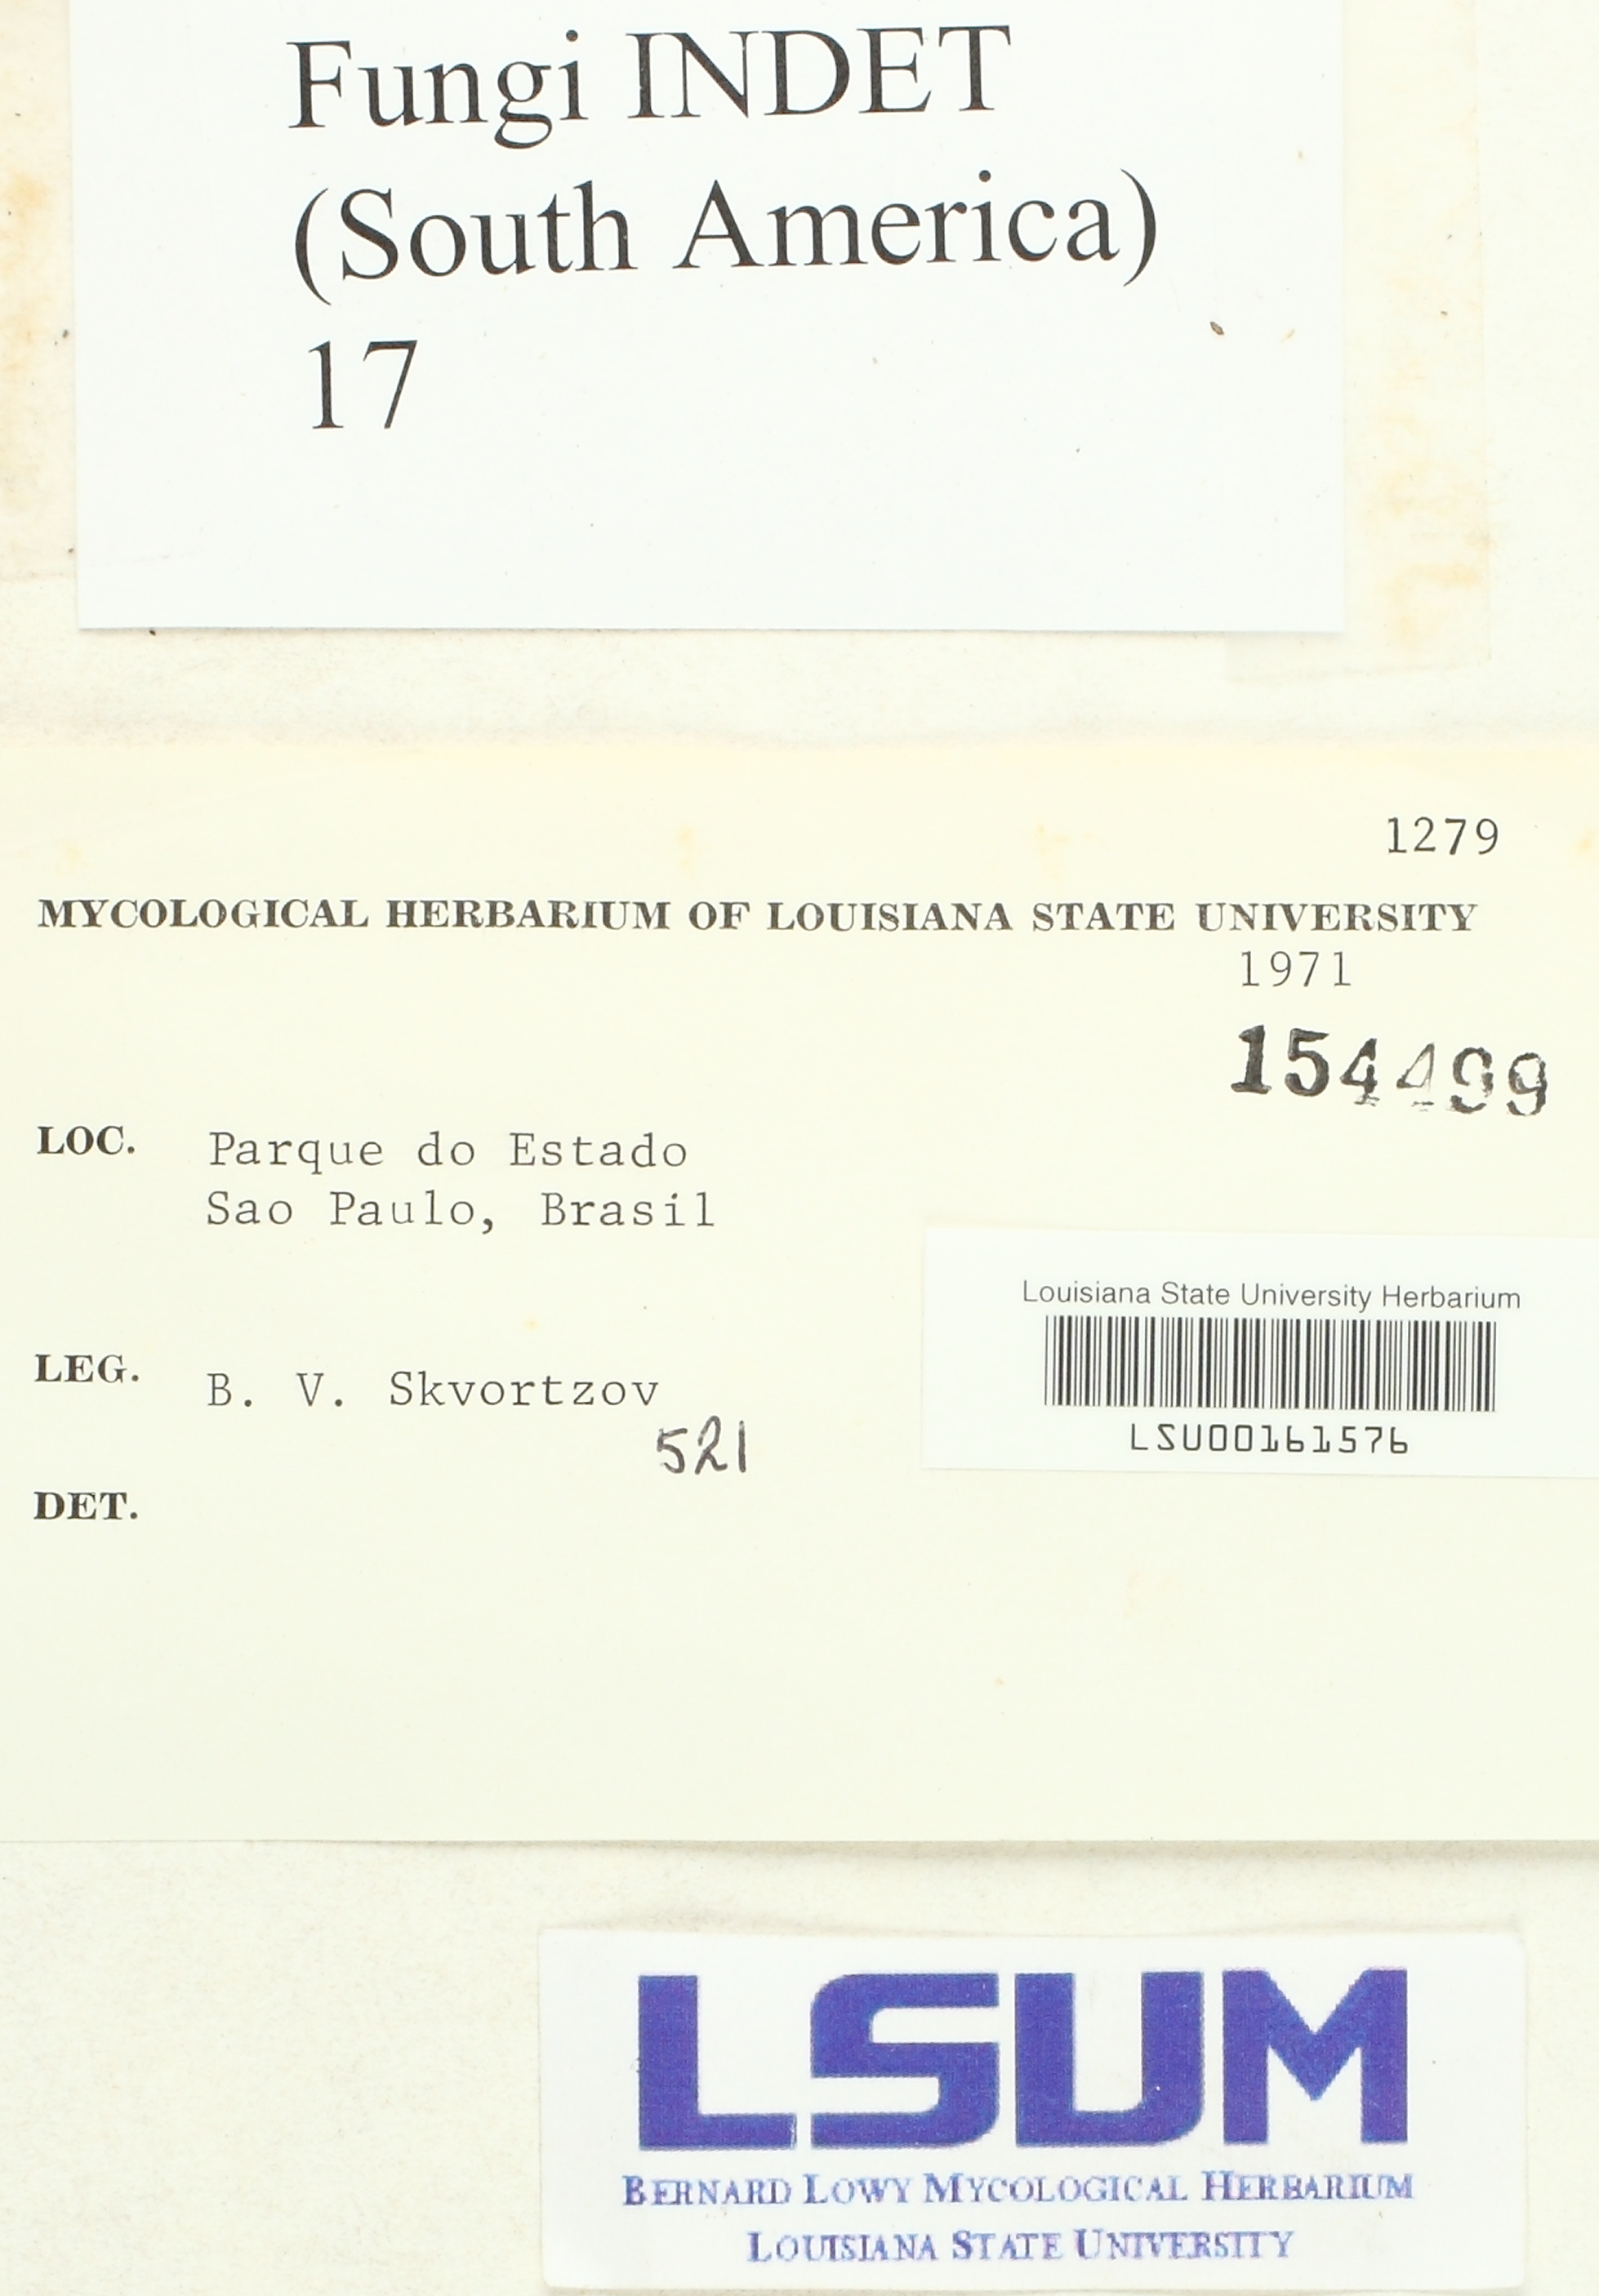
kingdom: Fungi
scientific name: Fungi
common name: Fungi
